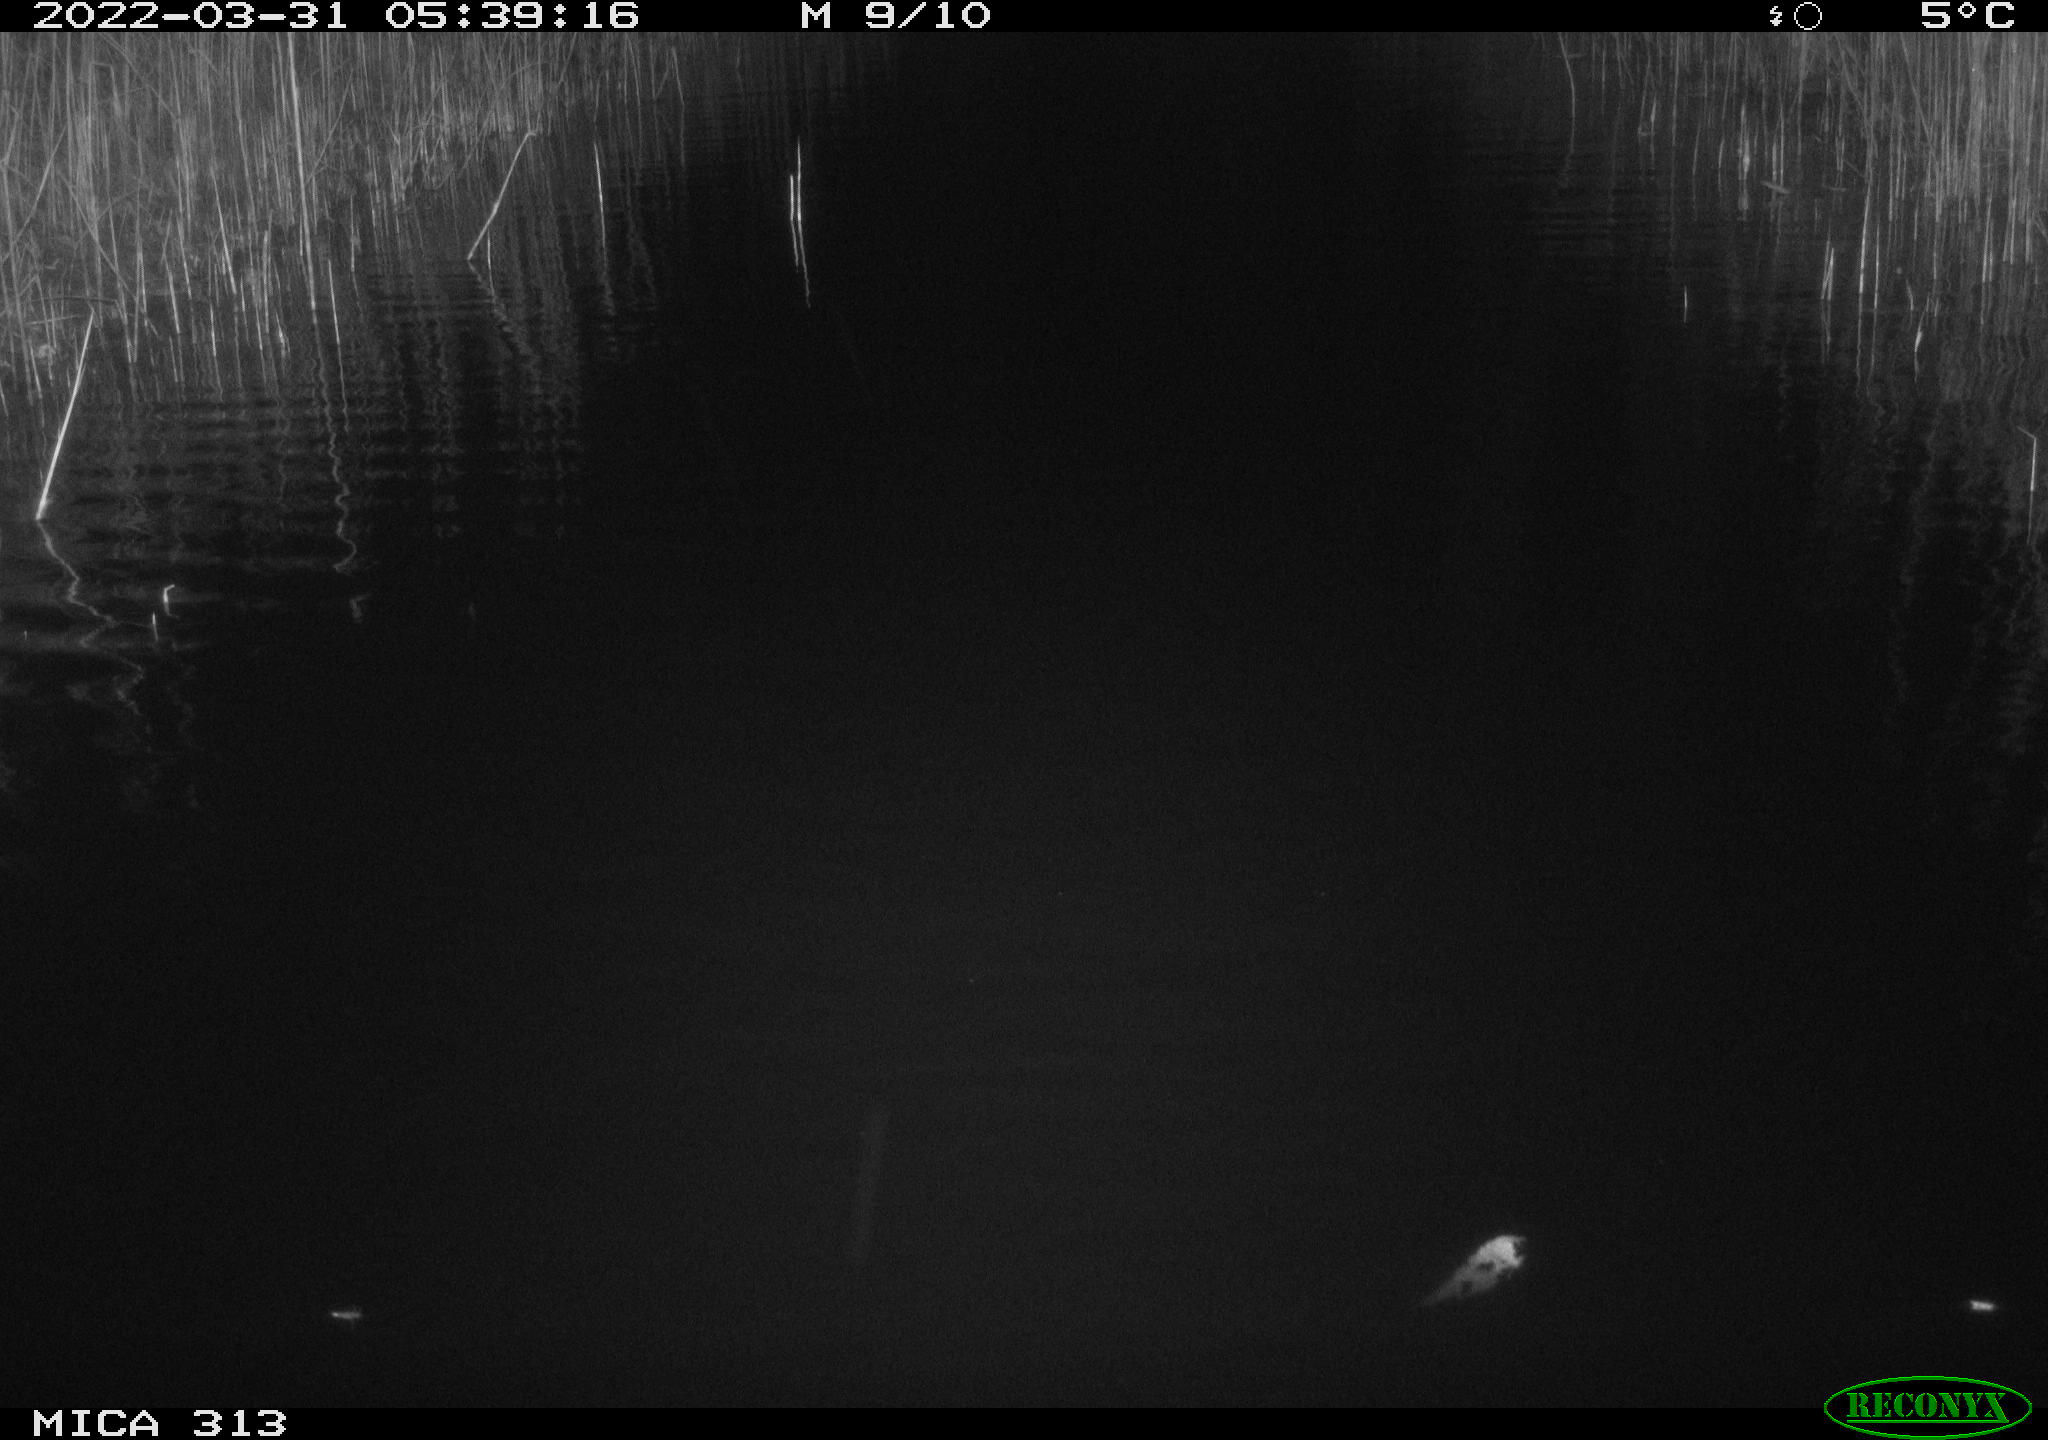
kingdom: Animalia
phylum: Chordata
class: Aves
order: Anseriformes
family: Anatidae
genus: Anas
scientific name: Anas platyrhynchos
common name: Mallard
